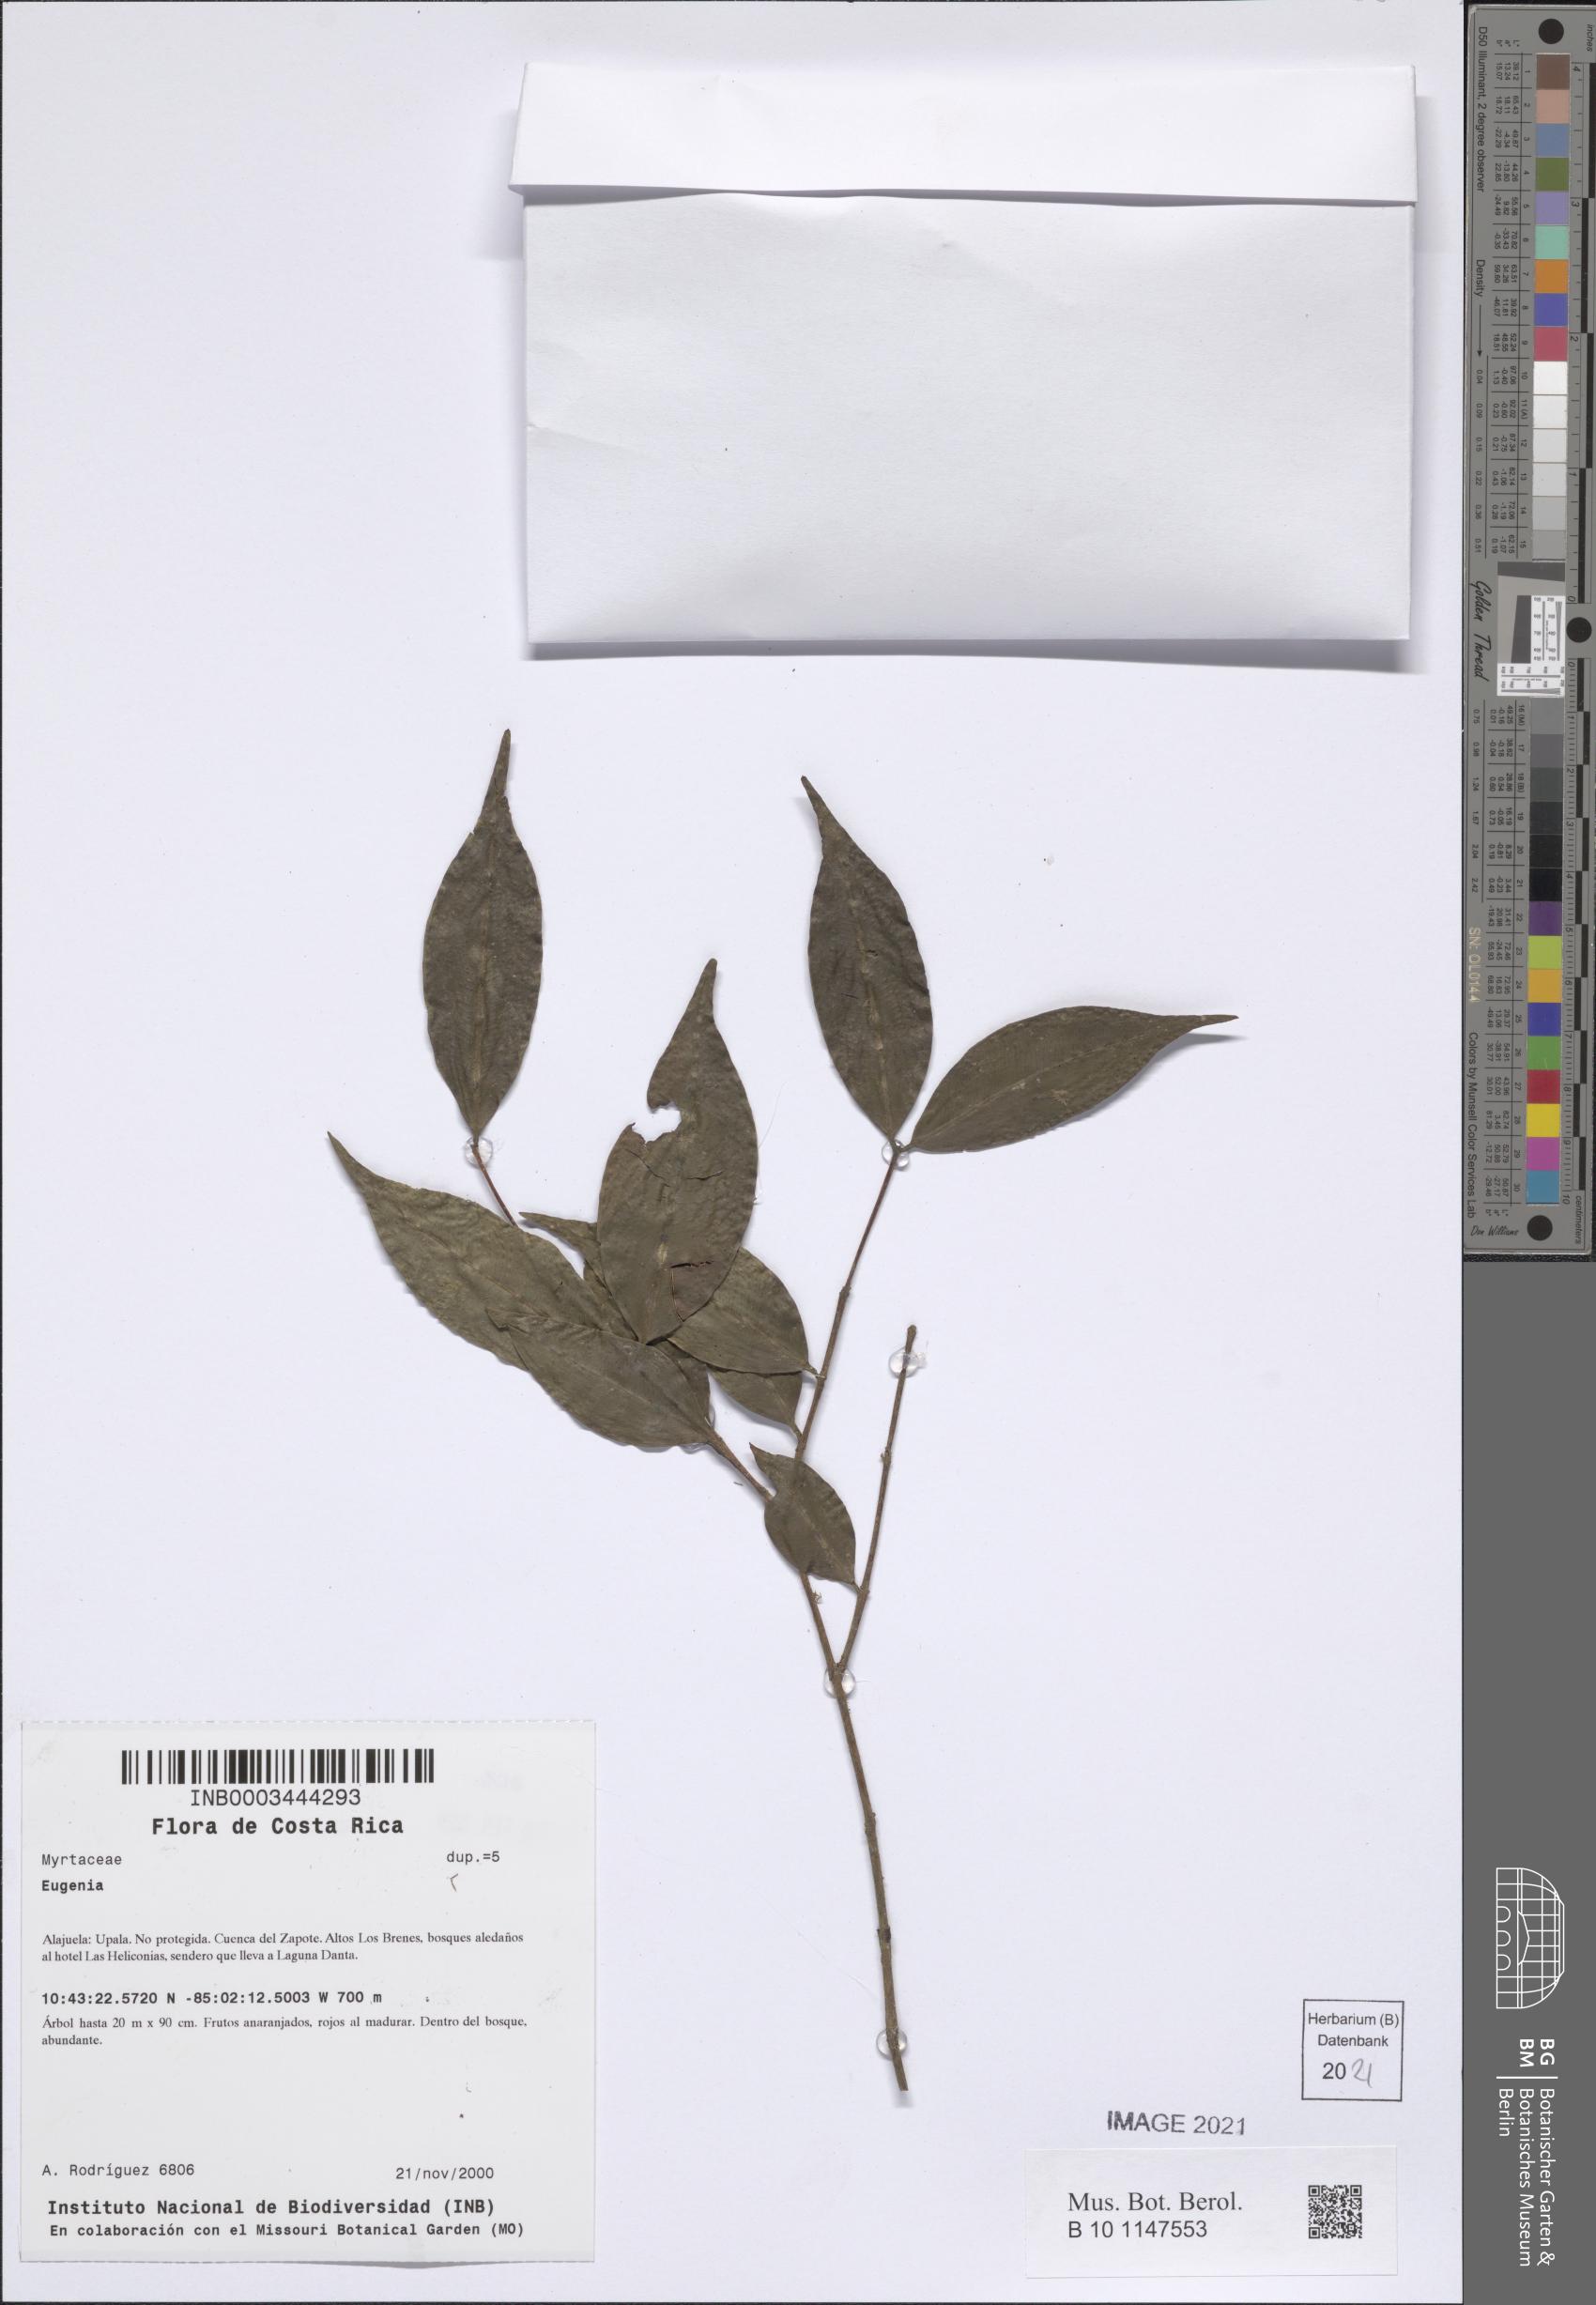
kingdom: Plantae
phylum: Tracheophyta
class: Magnoliopsida
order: Myrtales
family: Myrtaceae
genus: Eugenia
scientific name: Eugenia
